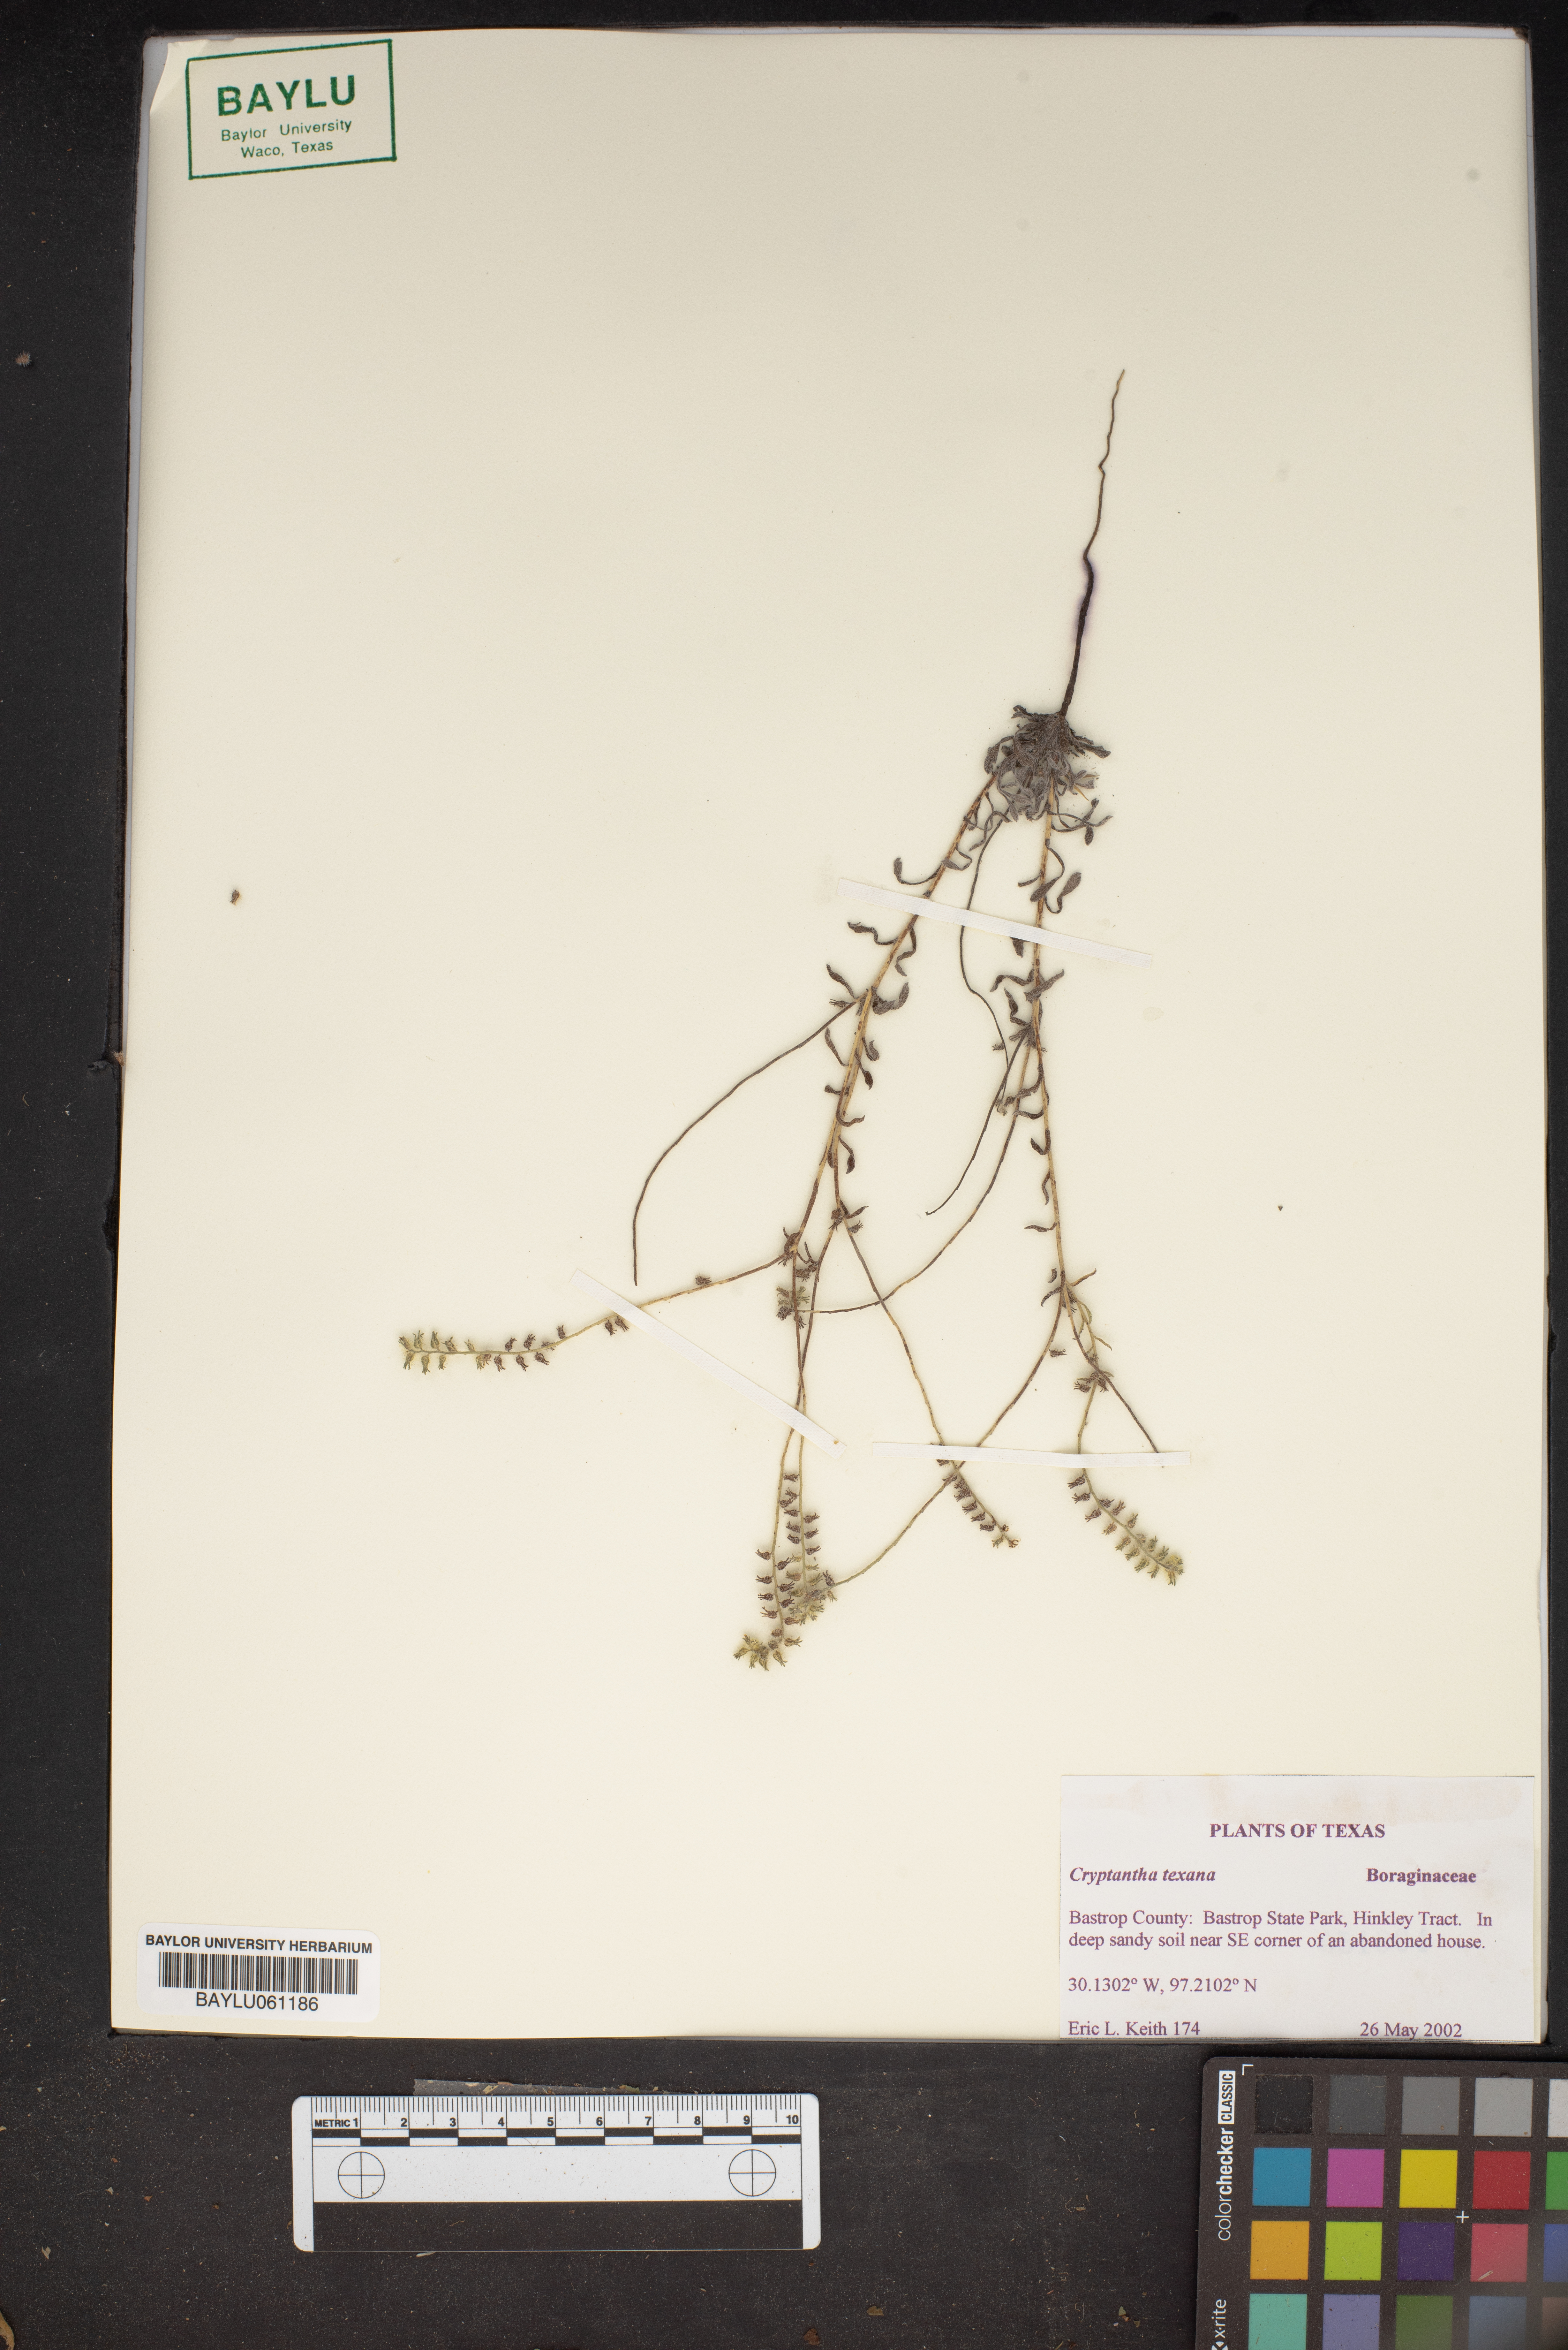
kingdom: Plantae
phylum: Tracheophyta
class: Magnoliopsida
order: Boraginales
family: Boraginaceae
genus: Cryptantha
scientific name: Cryptantha texana
